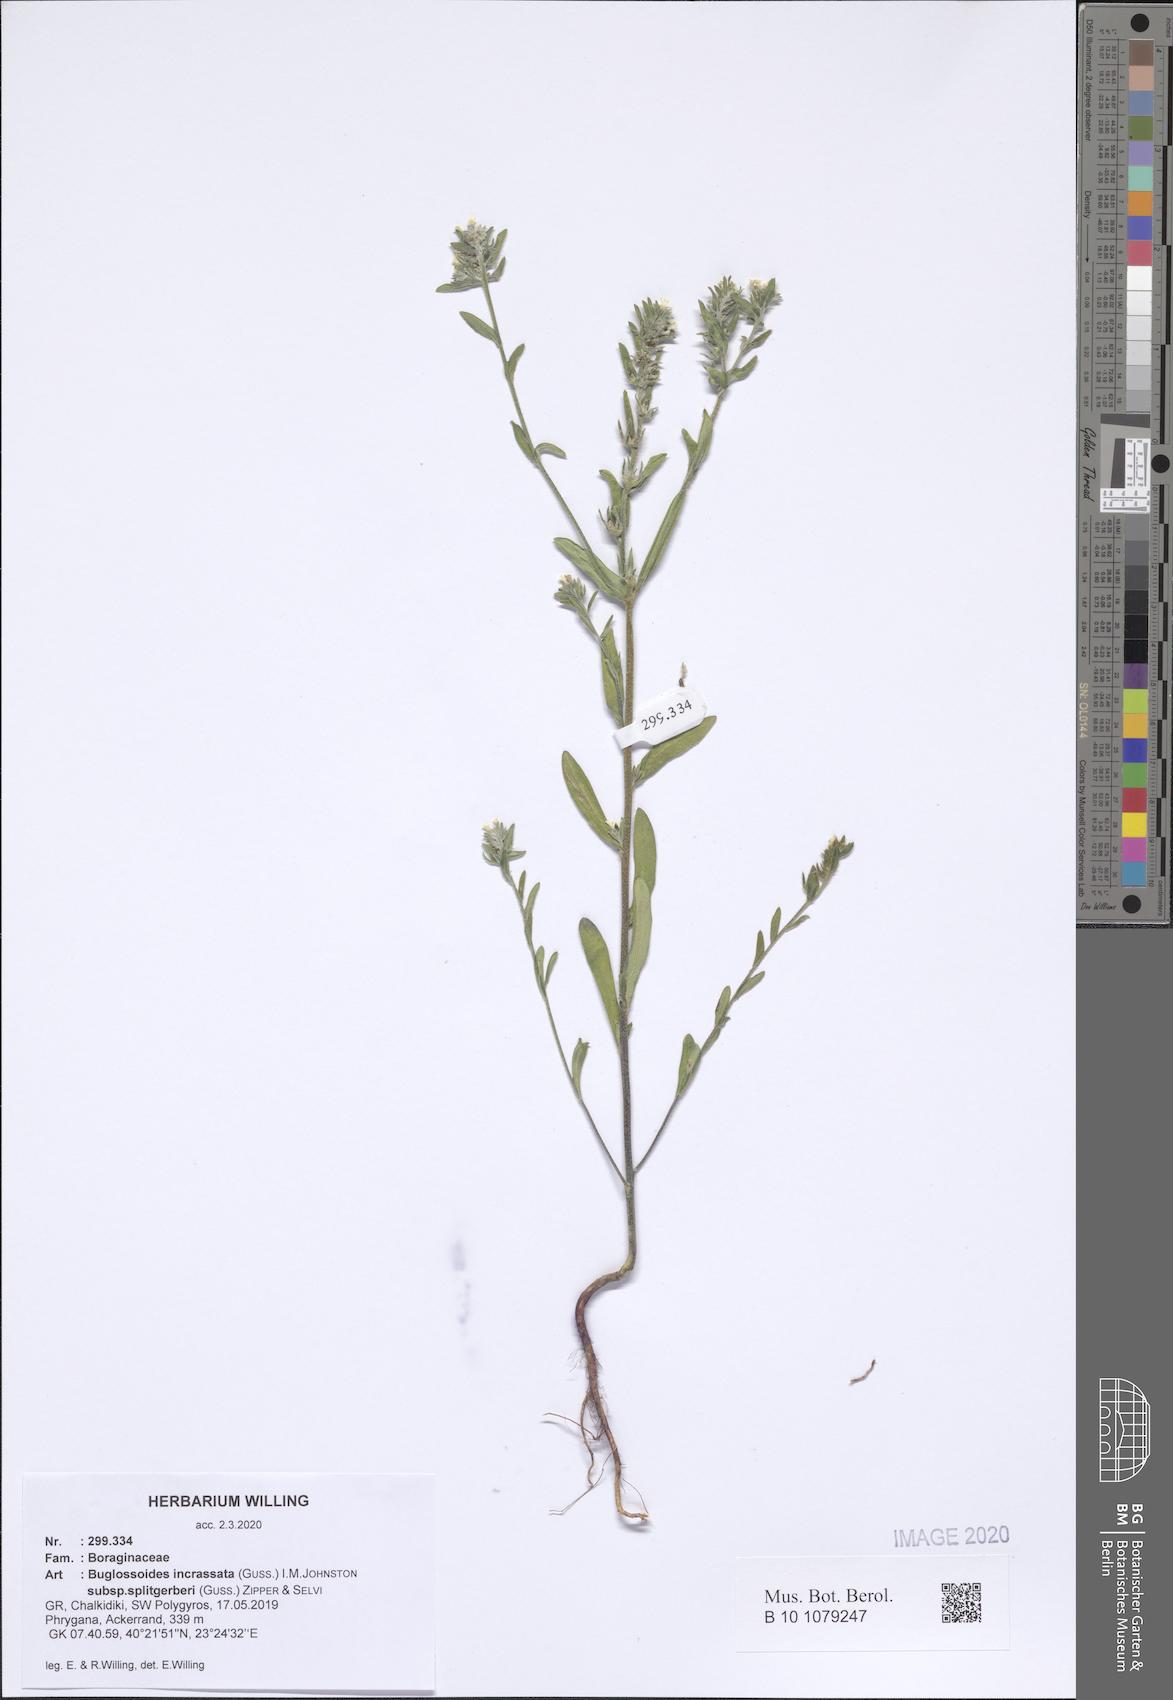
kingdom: Plantae
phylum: Tracheophyta
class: Magnoliopsida
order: Boraginales
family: Boraginaceae
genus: Buglossoides
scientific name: Buglossoides incrassata
